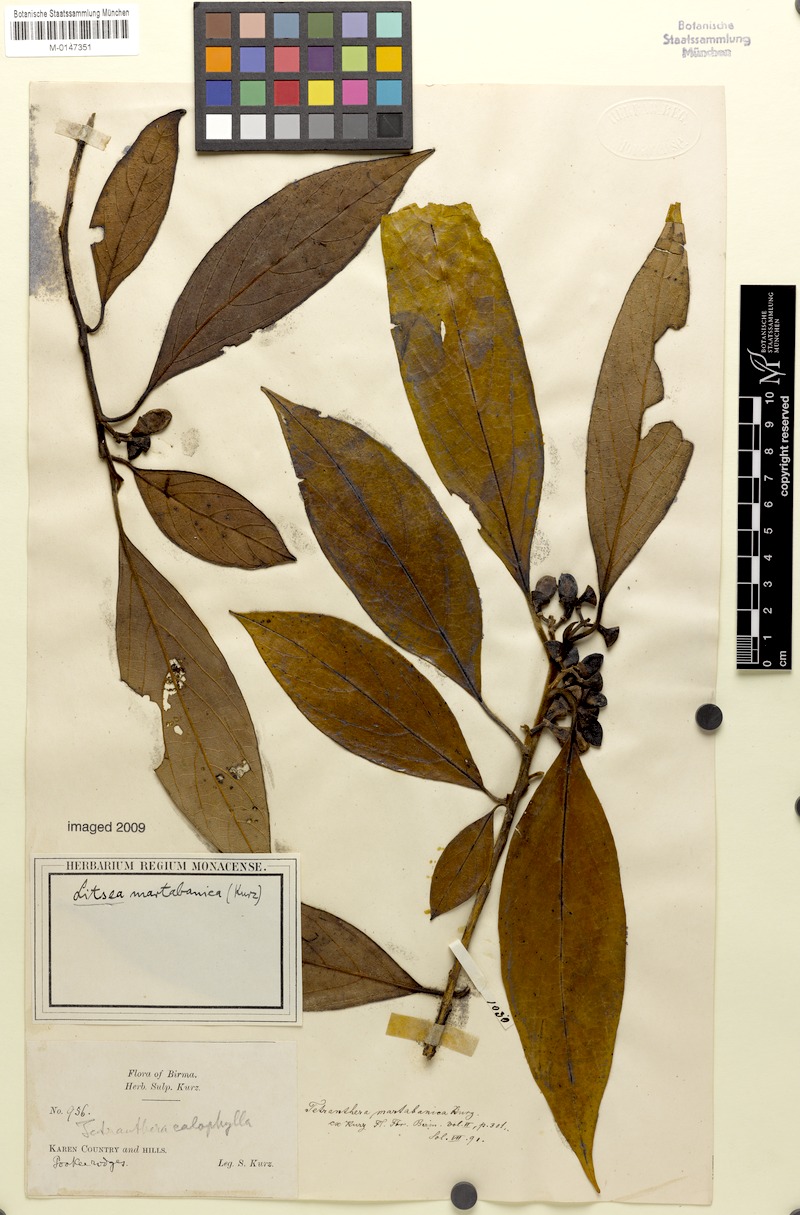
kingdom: Plantae
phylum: Tracheophyta
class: Magnoliopsida
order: Laurales
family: Lauraceae
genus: Litsea
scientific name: Litsea martabanica
